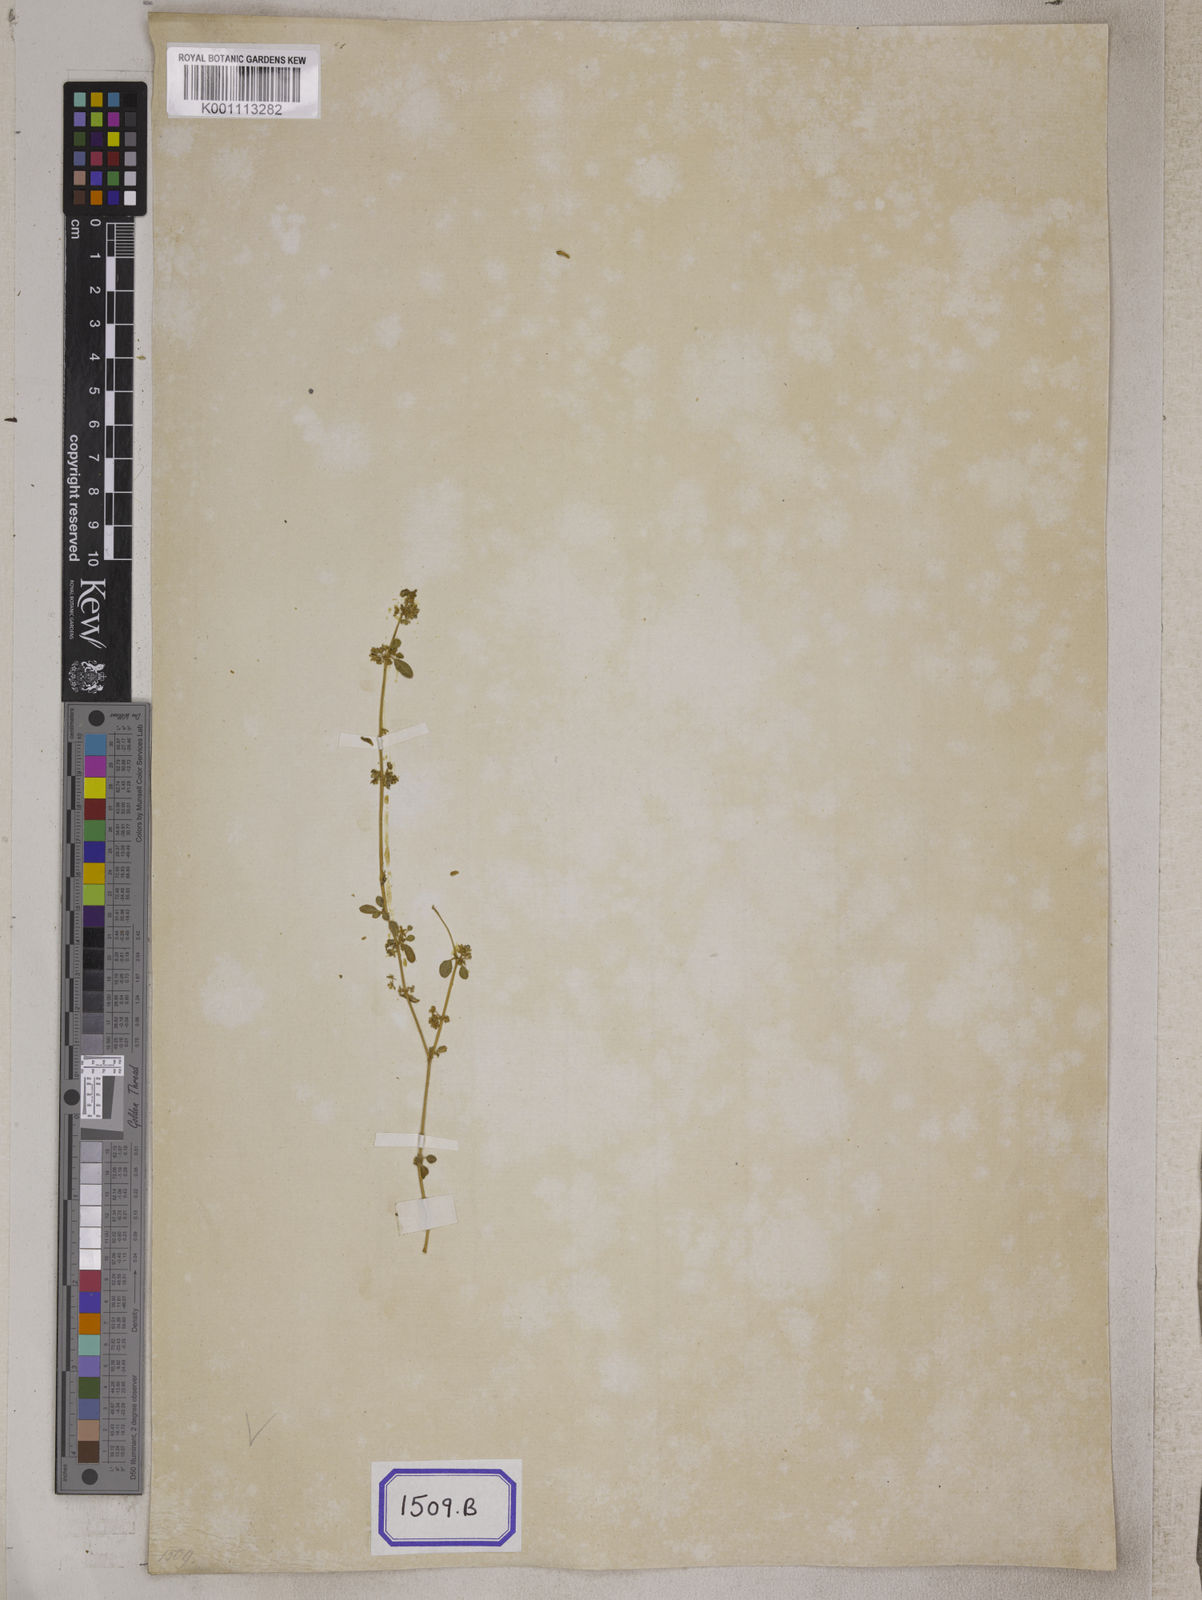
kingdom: Plantae
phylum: Tracheophyta
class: Magnoliopsida
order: Caryophyllales
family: Gisekiaceae
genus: Gisekia
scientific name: Gisekia
